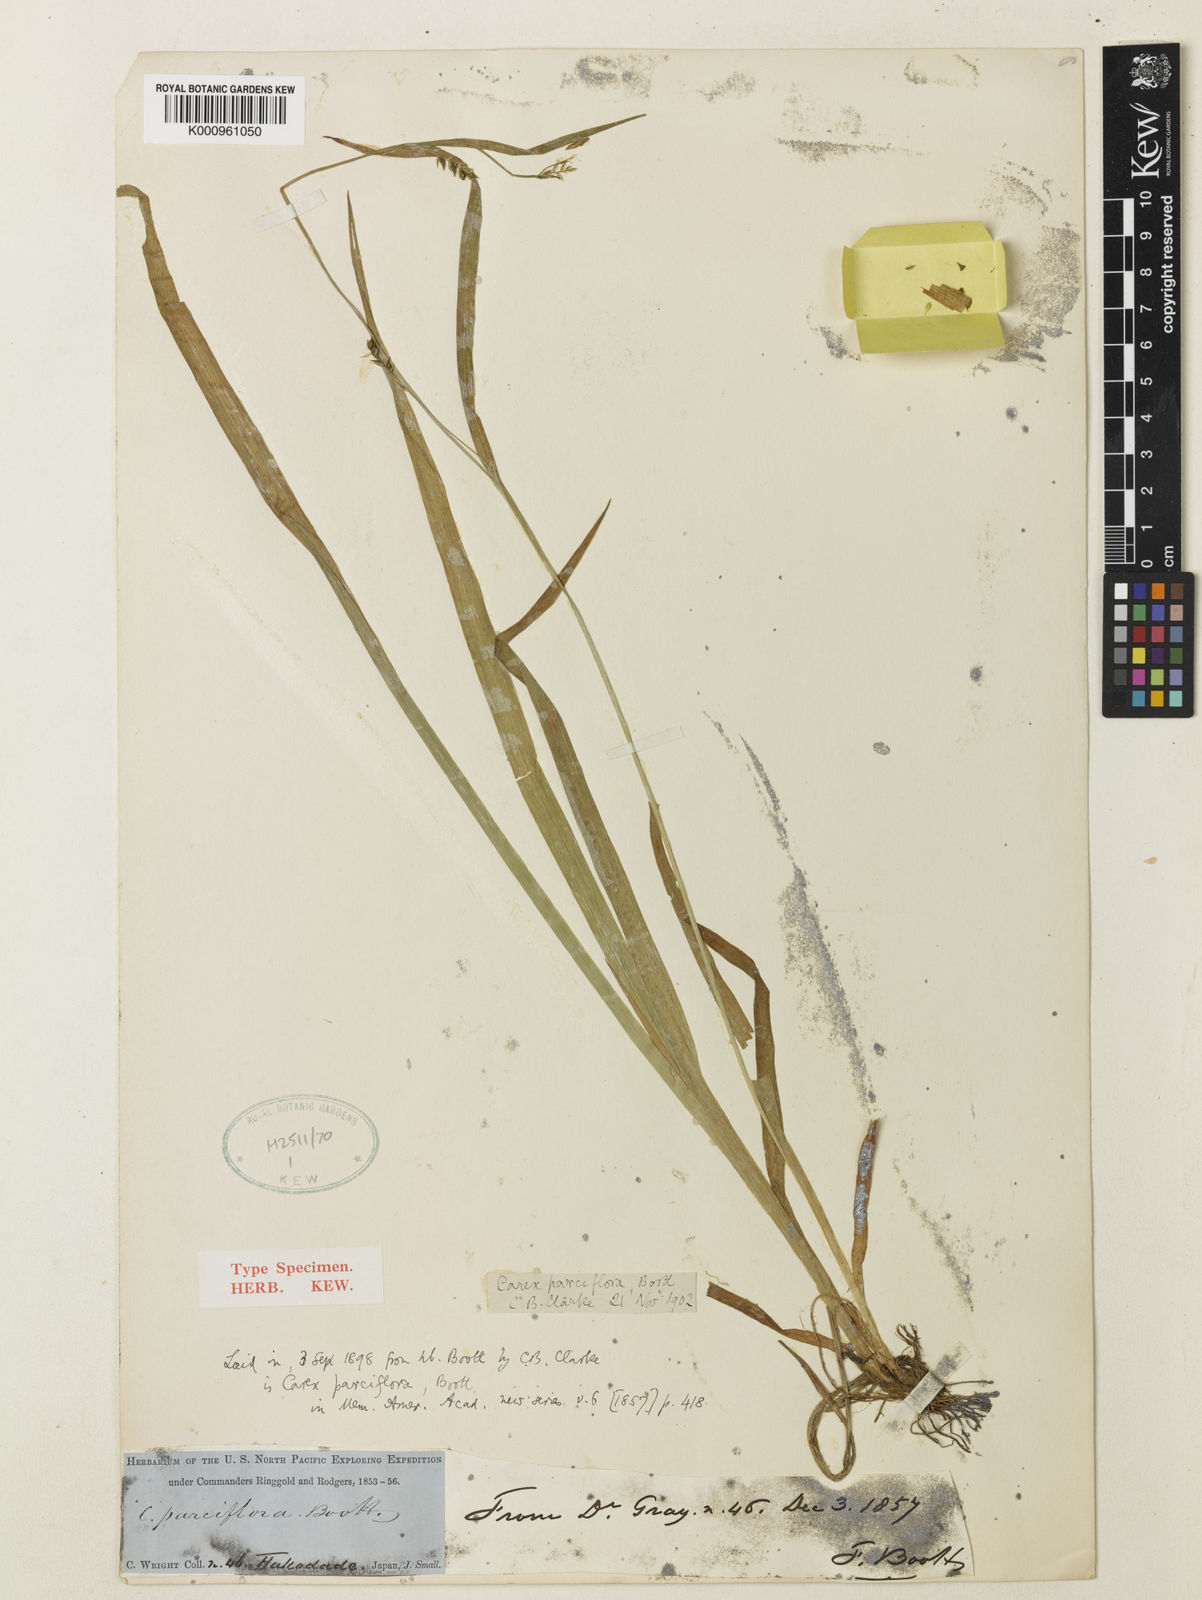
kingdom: Plantae
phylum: Tracheophyta
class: Liliopsida
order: Poales
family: Cyperaceae
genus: Carex
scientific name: Carex jackiana
